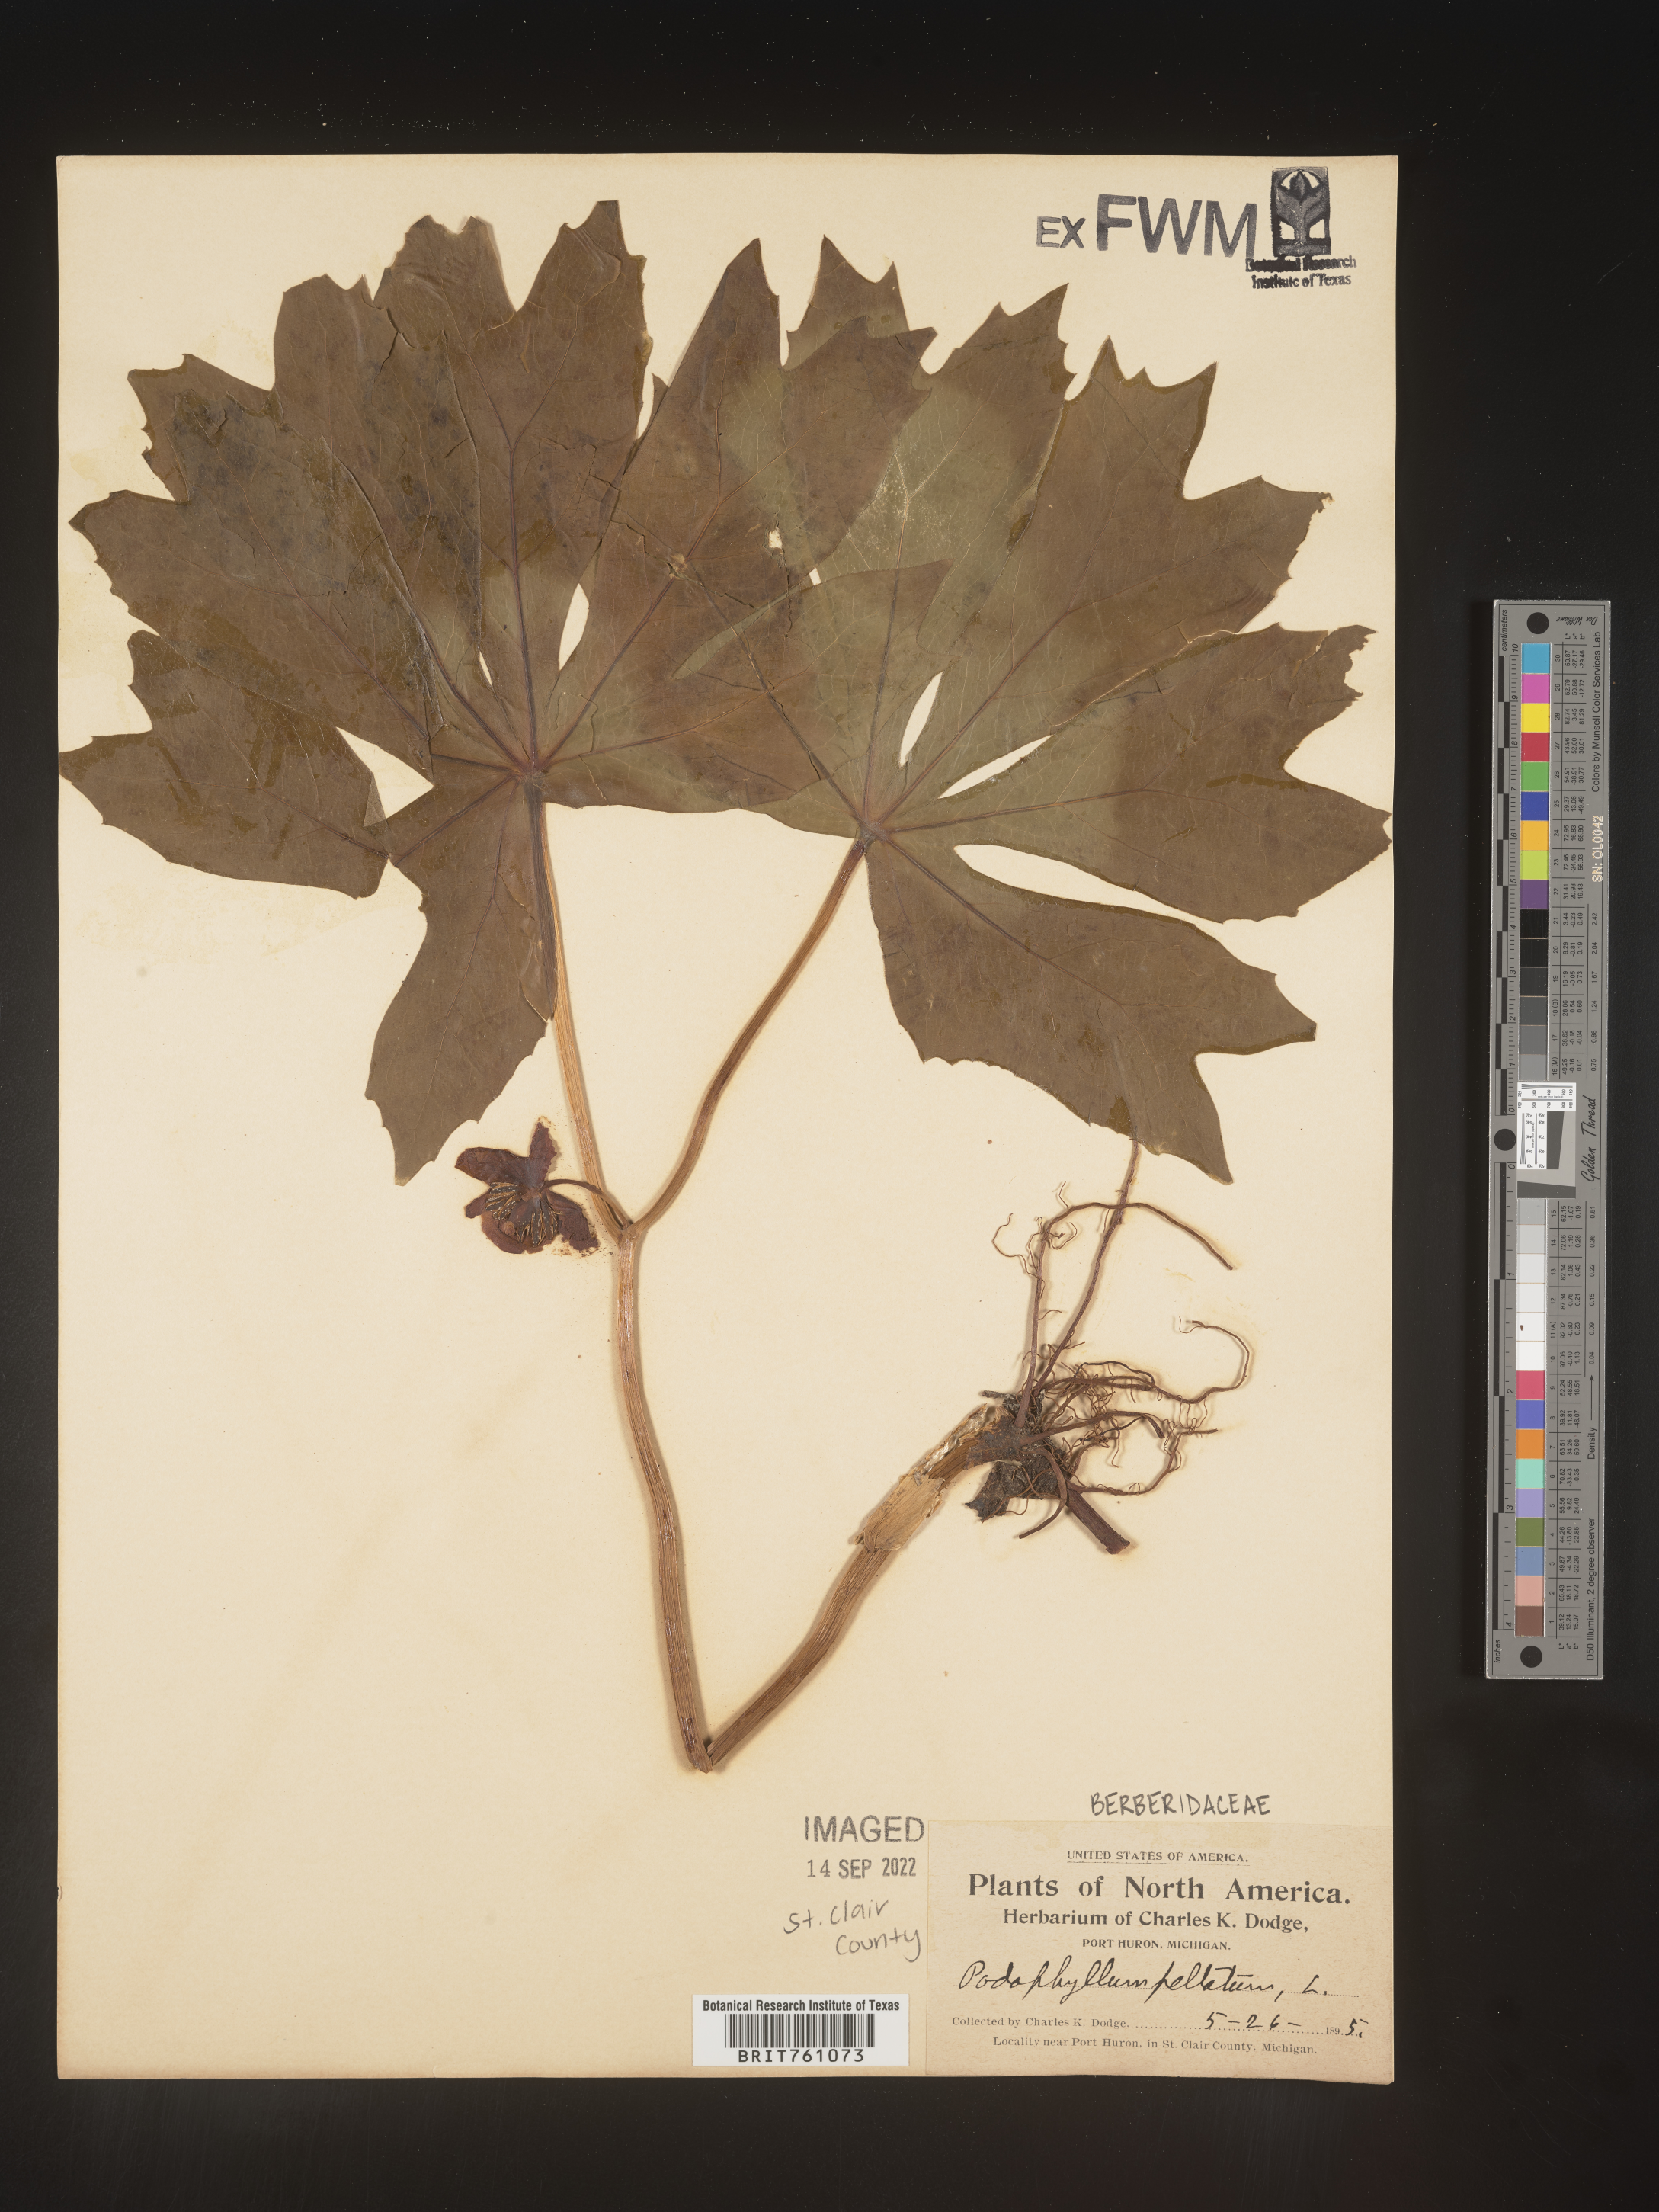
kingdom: Plantae
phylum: Tracheophyta
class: Magnoliopsida
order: Ranunculales
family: Berberidaceae
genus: Podophyllum
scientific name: Podophyllum peltatum
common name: Wild mandrake
